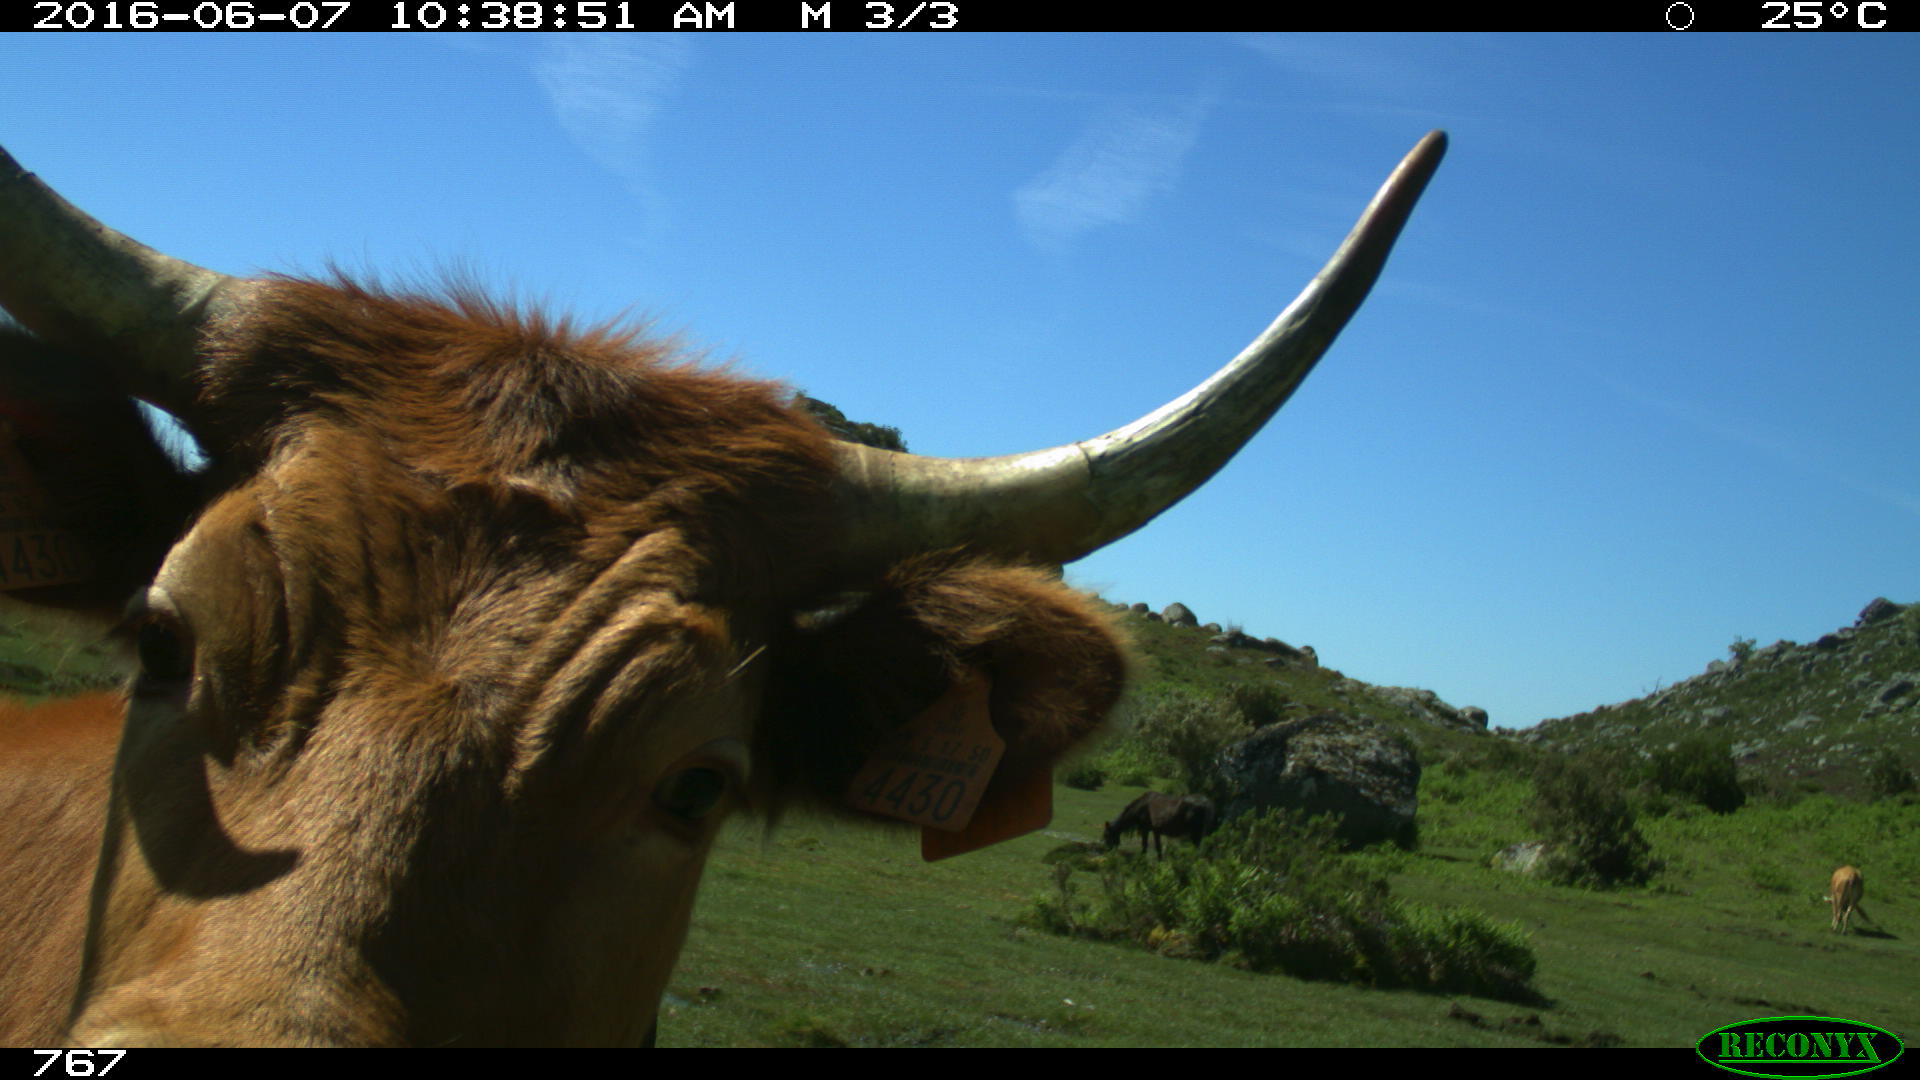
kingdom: Animalia
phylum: Chordata
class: Mammalia
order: Perissodactyla
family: Equidae
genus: Equus
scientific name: Equus caballus
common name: Horse
